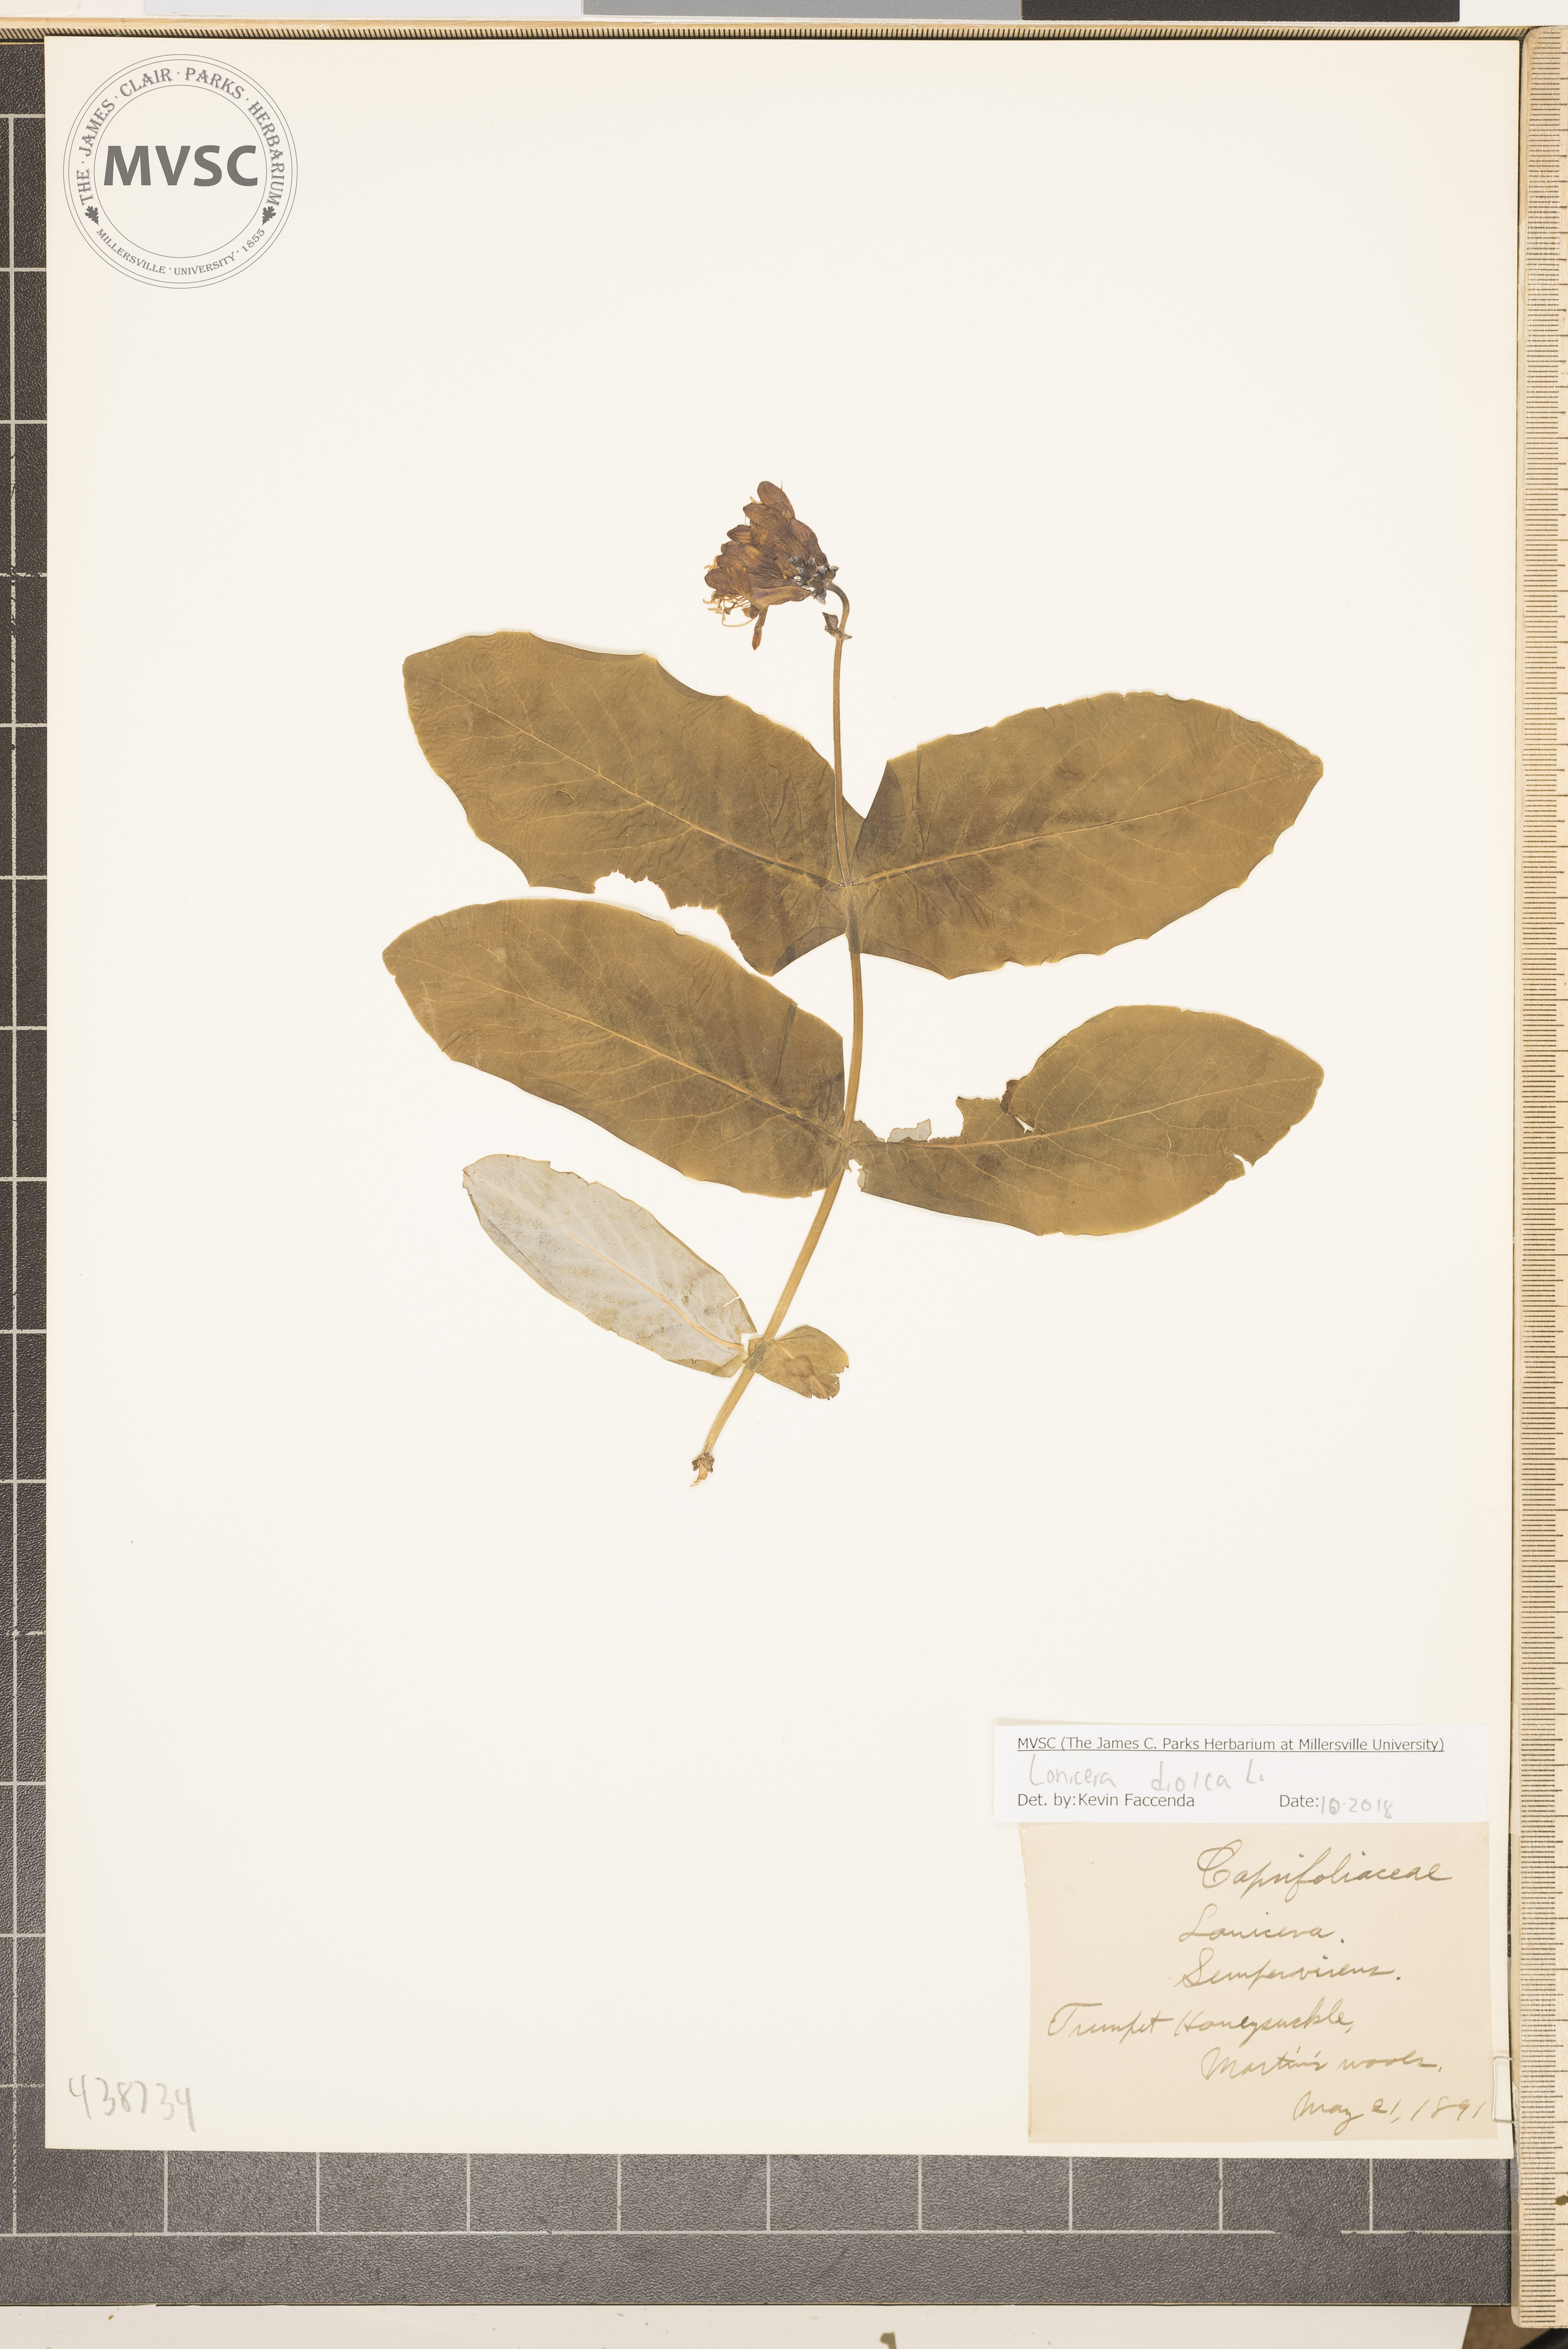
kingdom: Plantae
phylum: Tracheophyta
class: Magnoliopsida
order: Dipsacales
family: Caprifoliaceae
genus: Lonicera
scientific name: Lonicera dioica
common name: Trumpet honeysuckle
